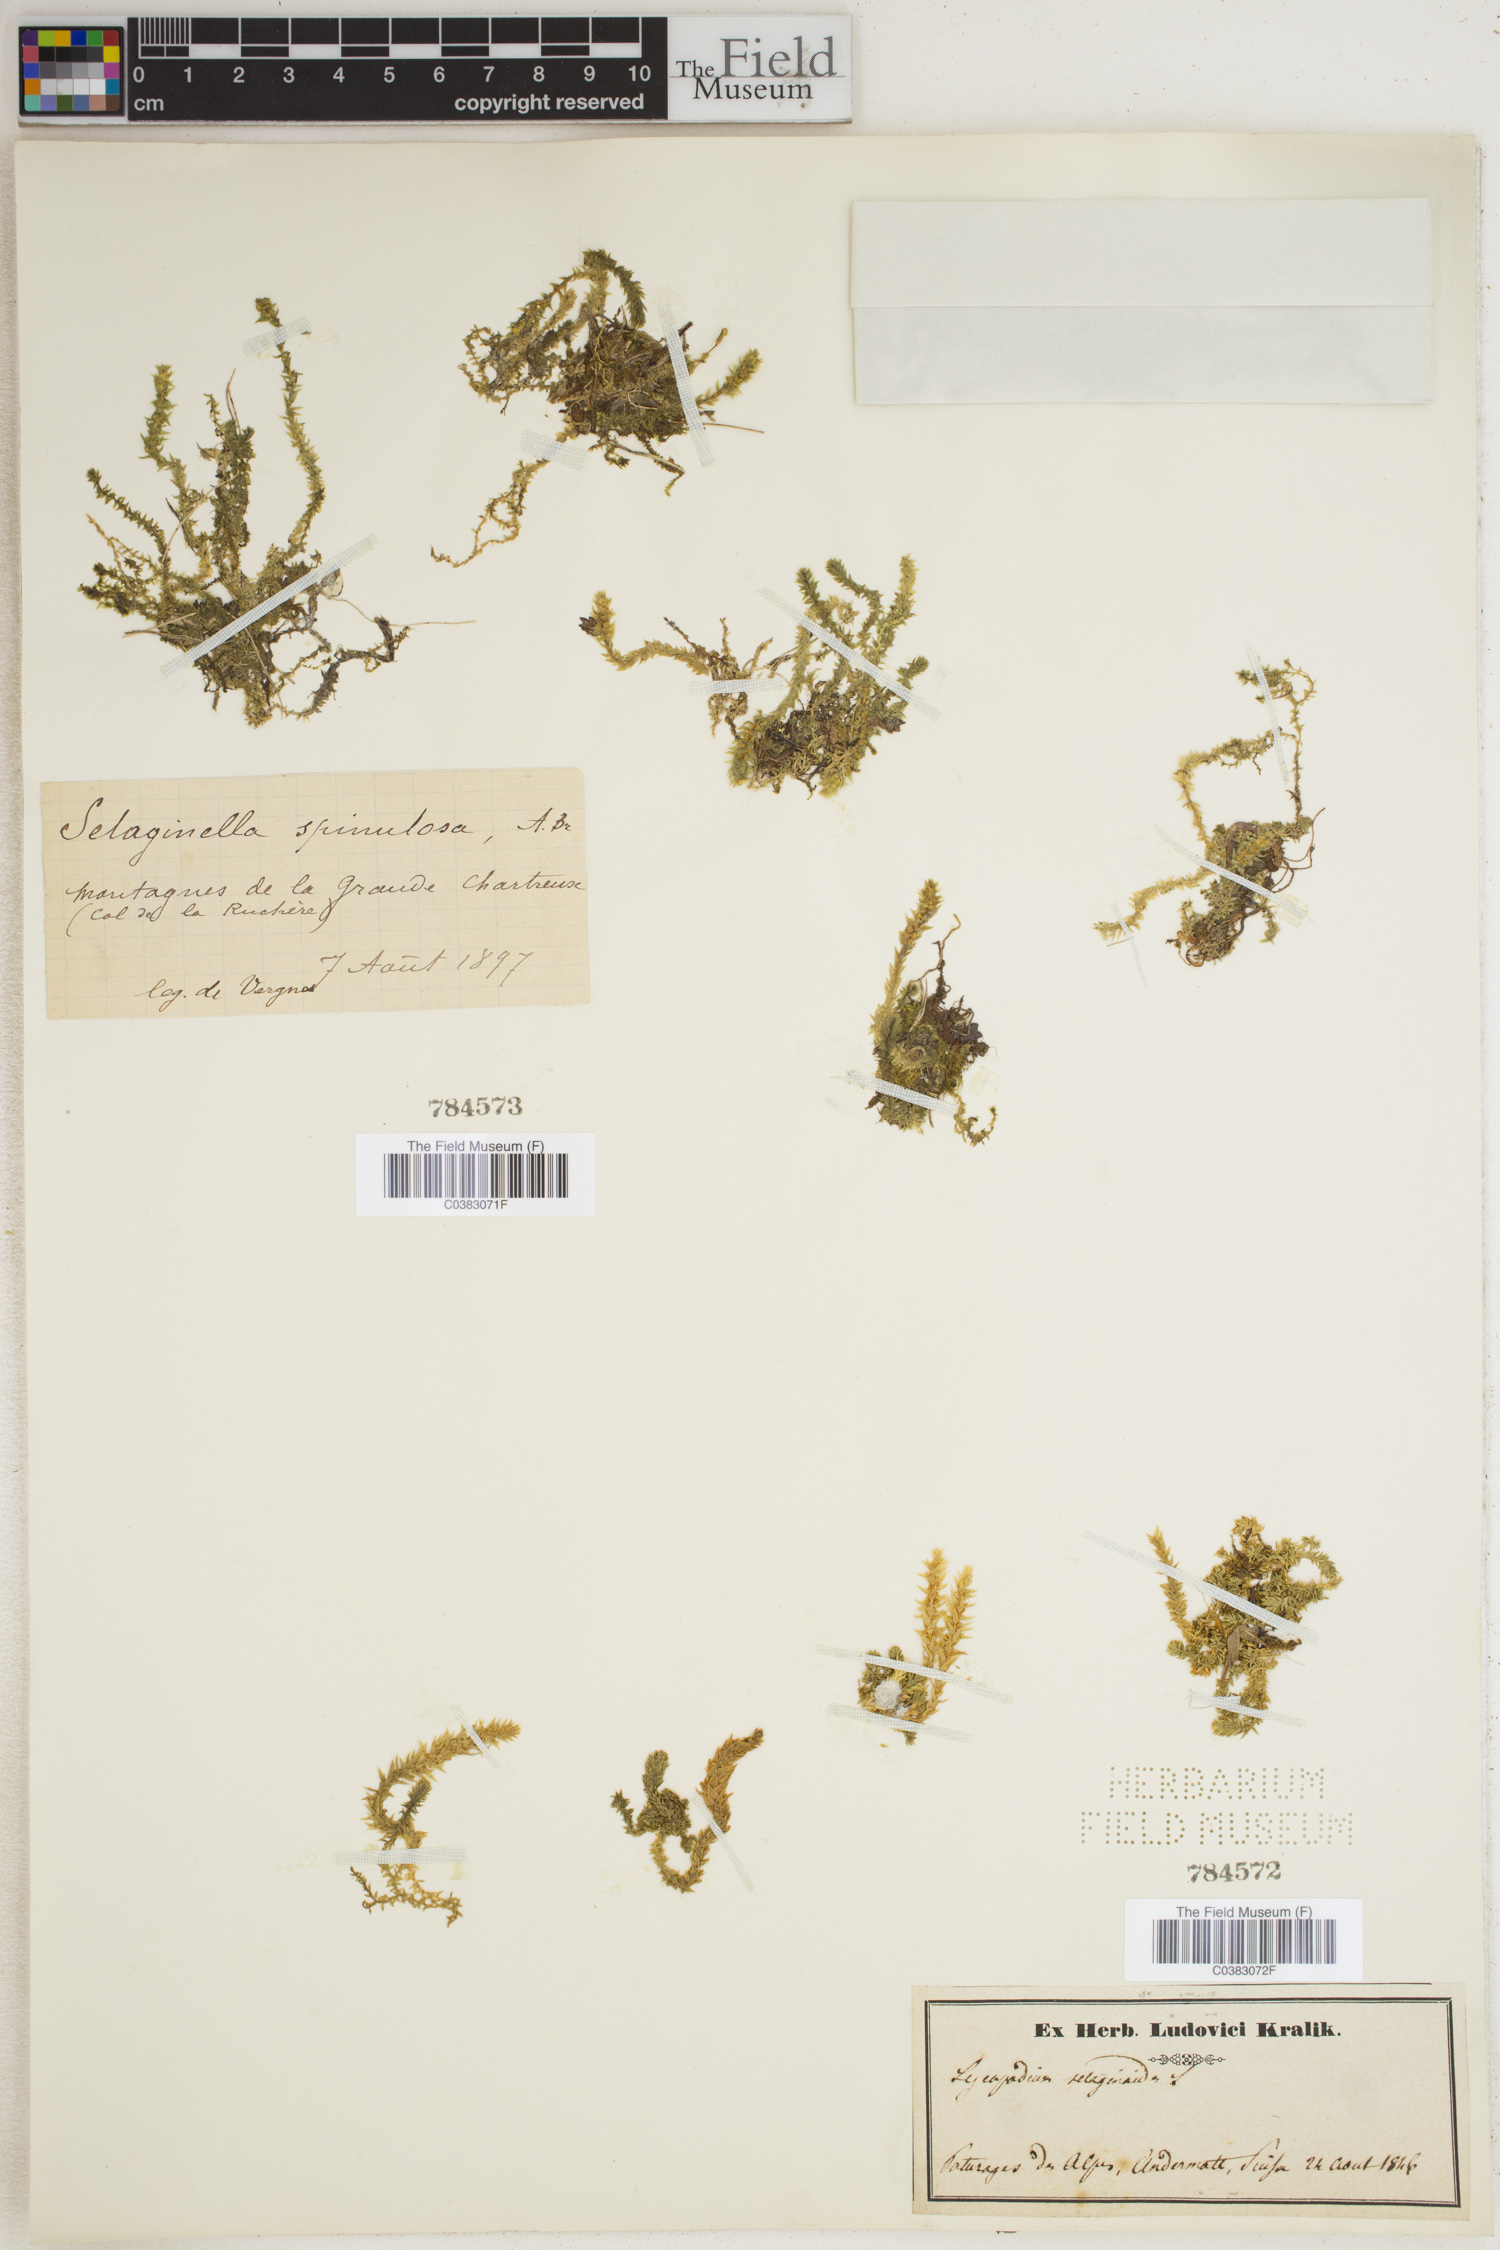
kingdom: Plantae
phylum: Tracheophyta
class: Lycopodiopsida
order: Selaginellales
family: Selaginellaceae
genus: Selaginella
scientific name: Selaginella selaginoides
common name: Prickly mountain-moss
